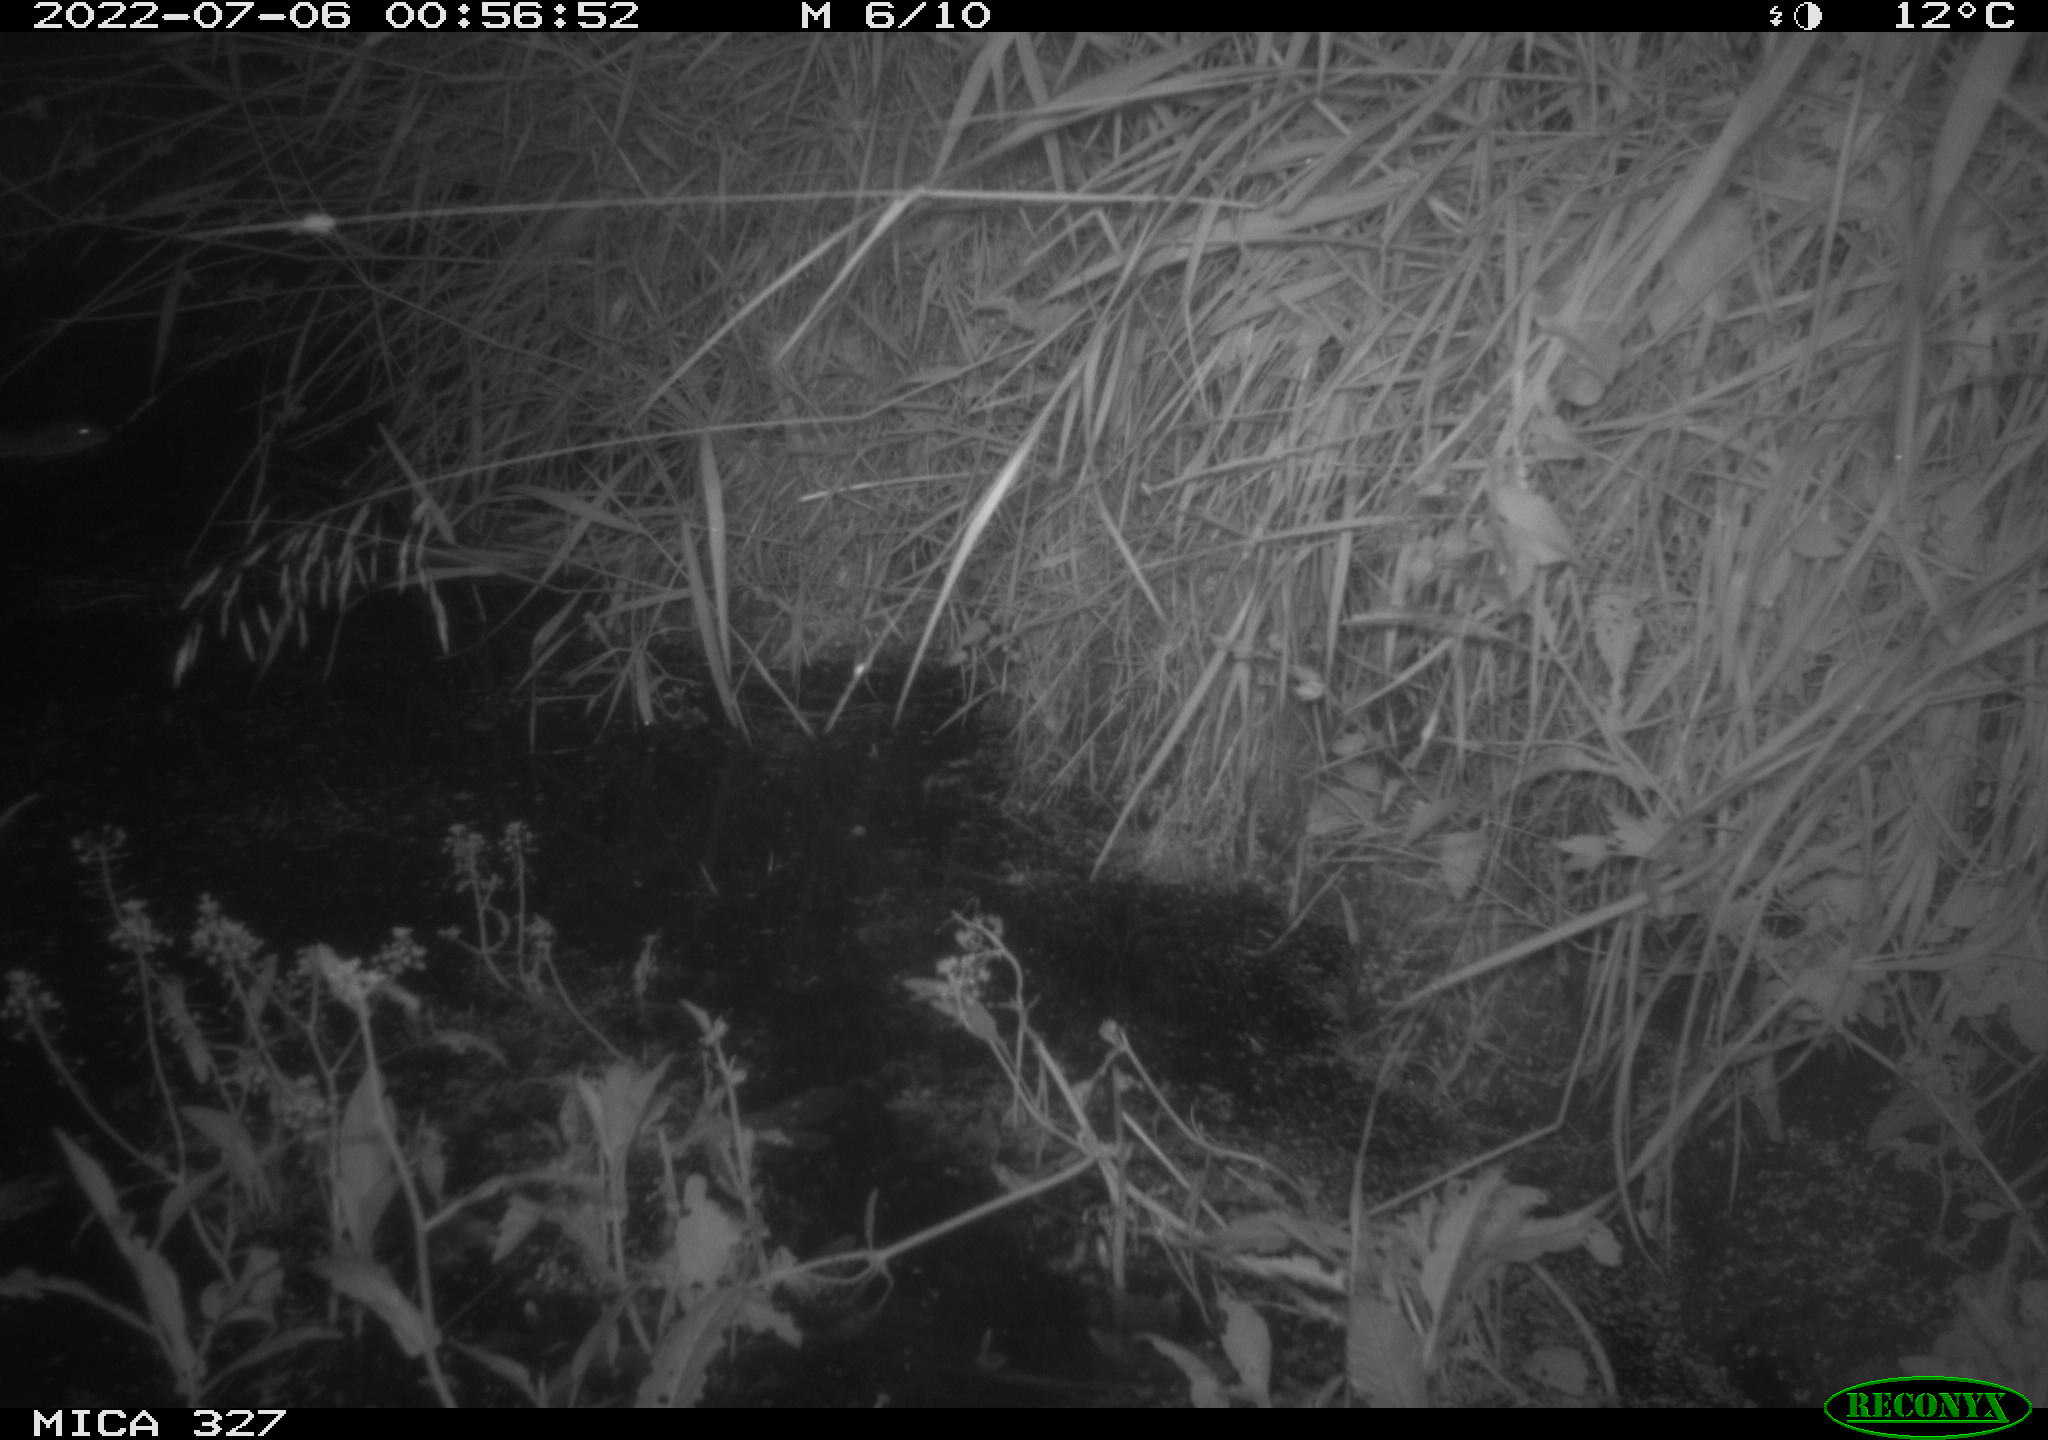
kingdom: Animalia
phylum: Chordata
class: Mammalia
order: Rodentia
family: Cricetidae
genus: Ondatra
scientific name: Ondatra zibethicus
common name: Muskrat
